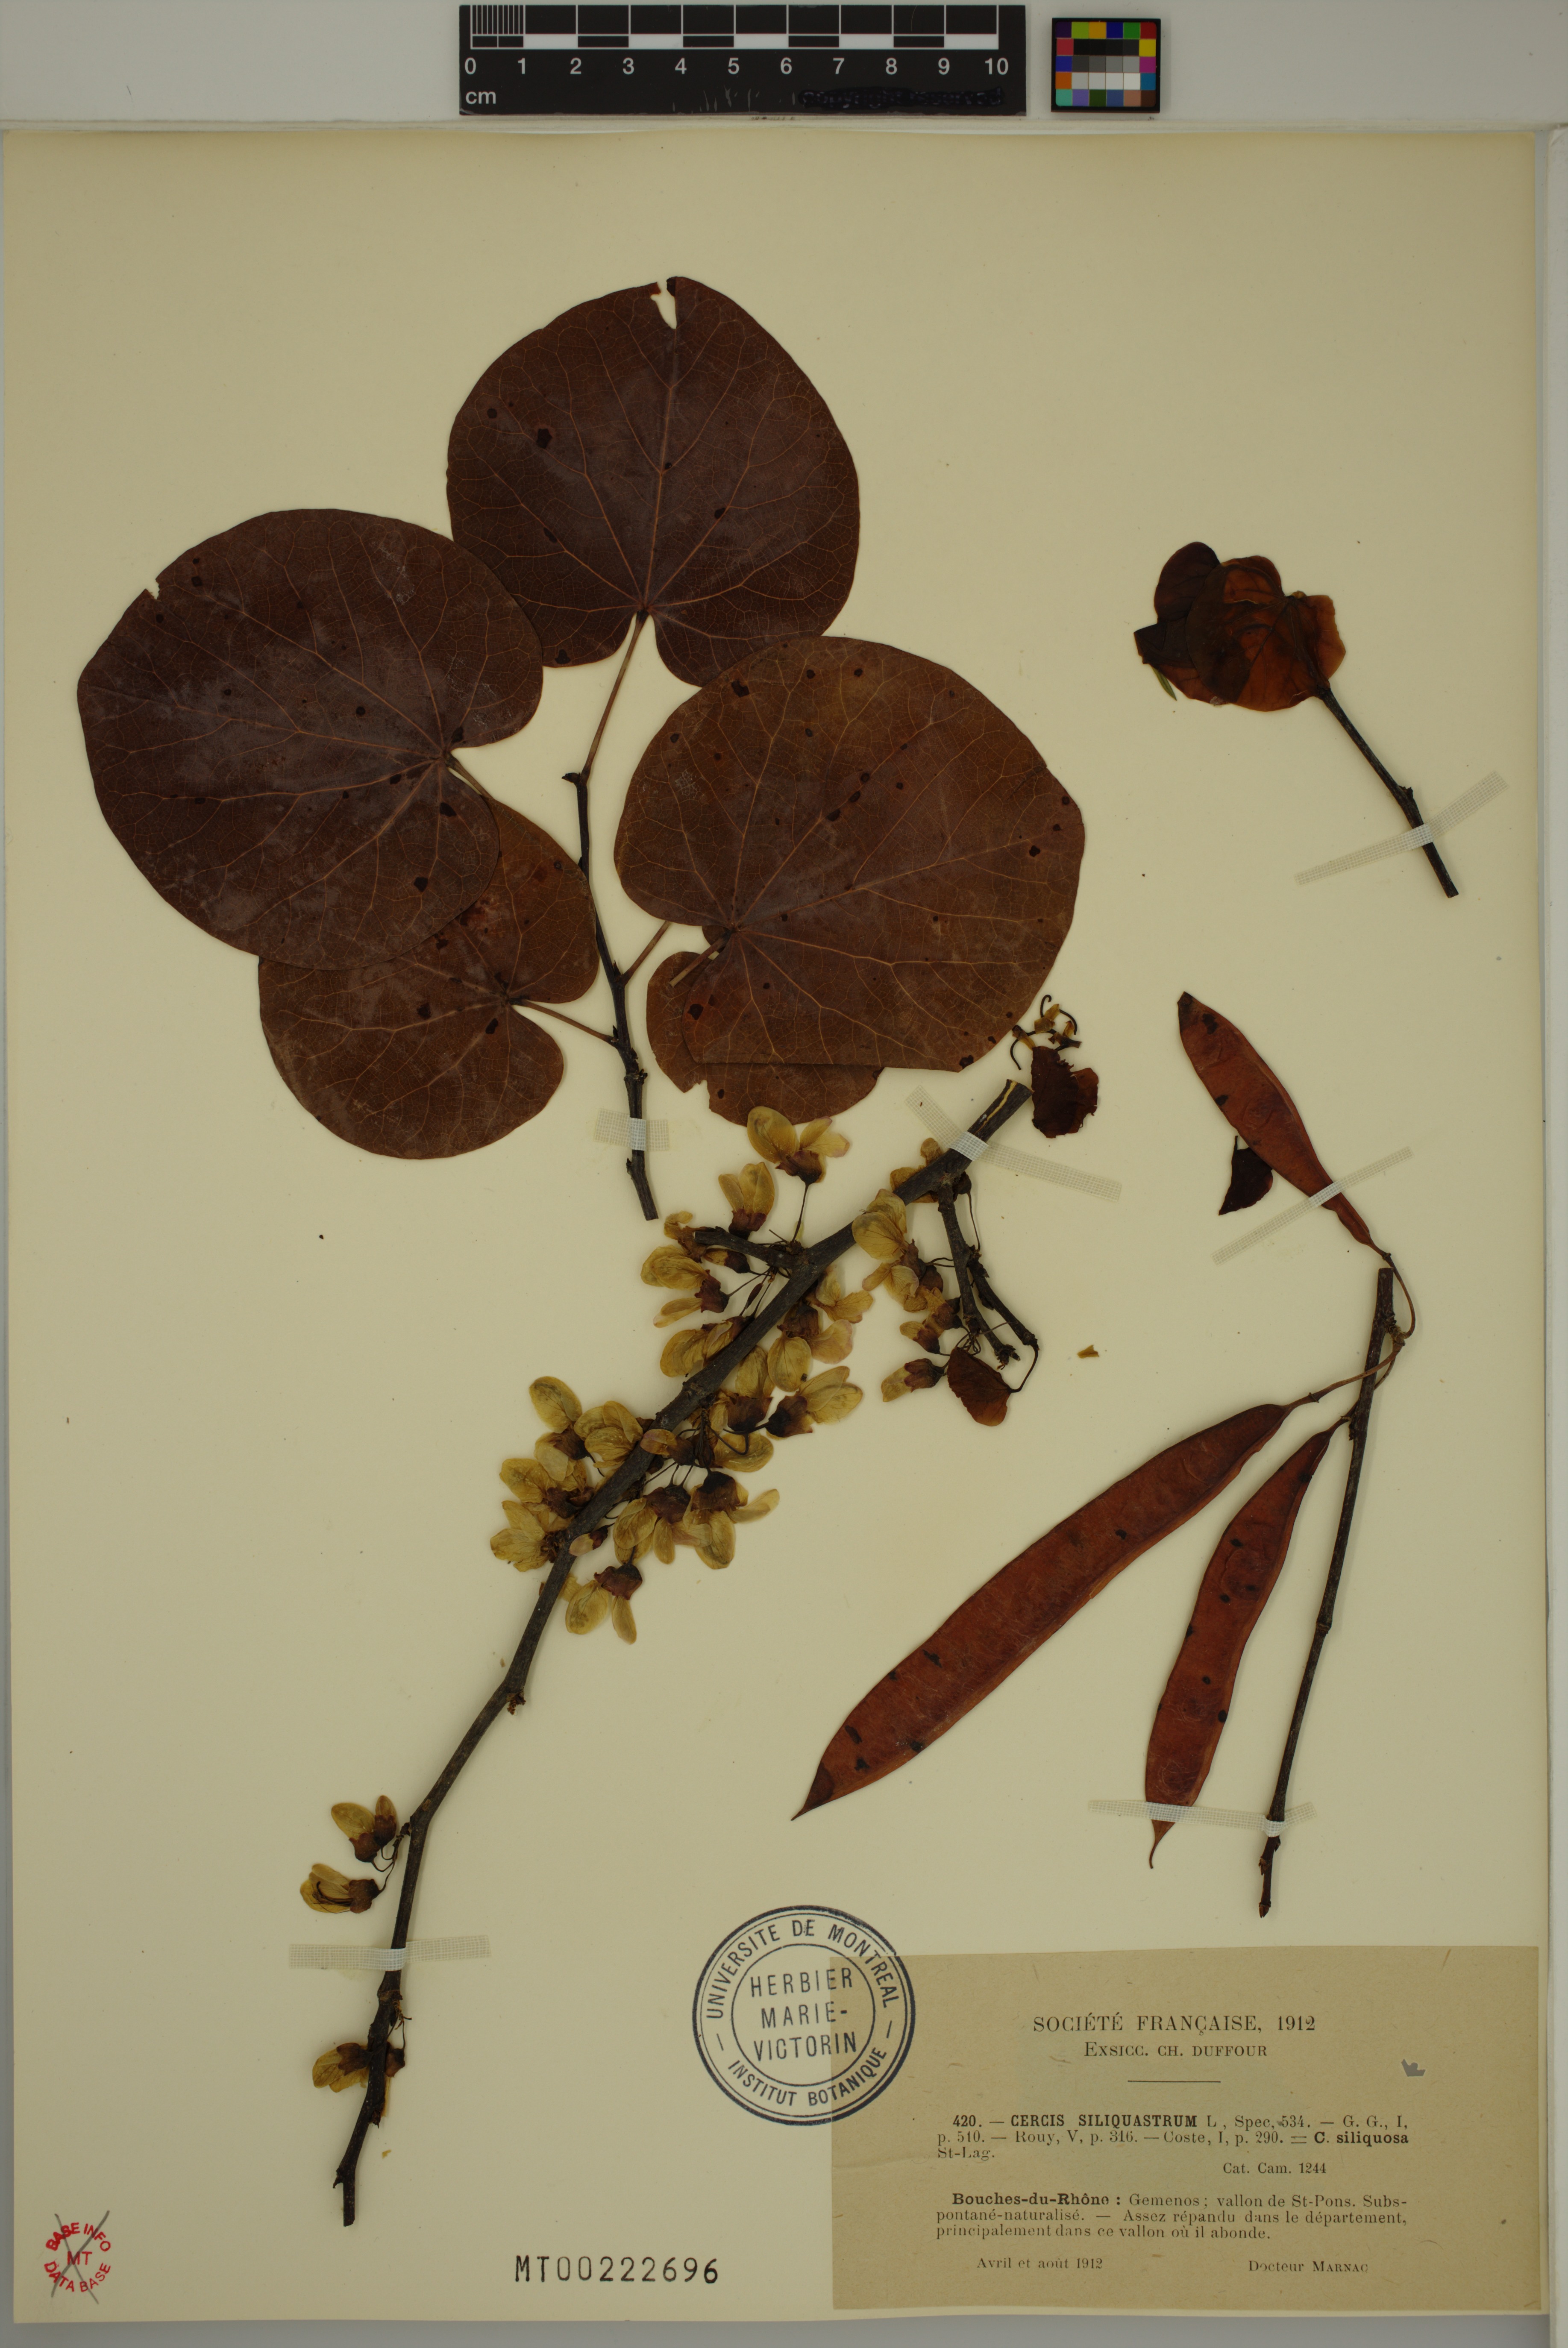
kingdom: Plantae
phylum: Tracheophyta
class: Magnoliopsida
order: Fabales
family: Fabaceae
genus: Cercis
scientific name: Cercis siliquastrum
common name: Judas tree
